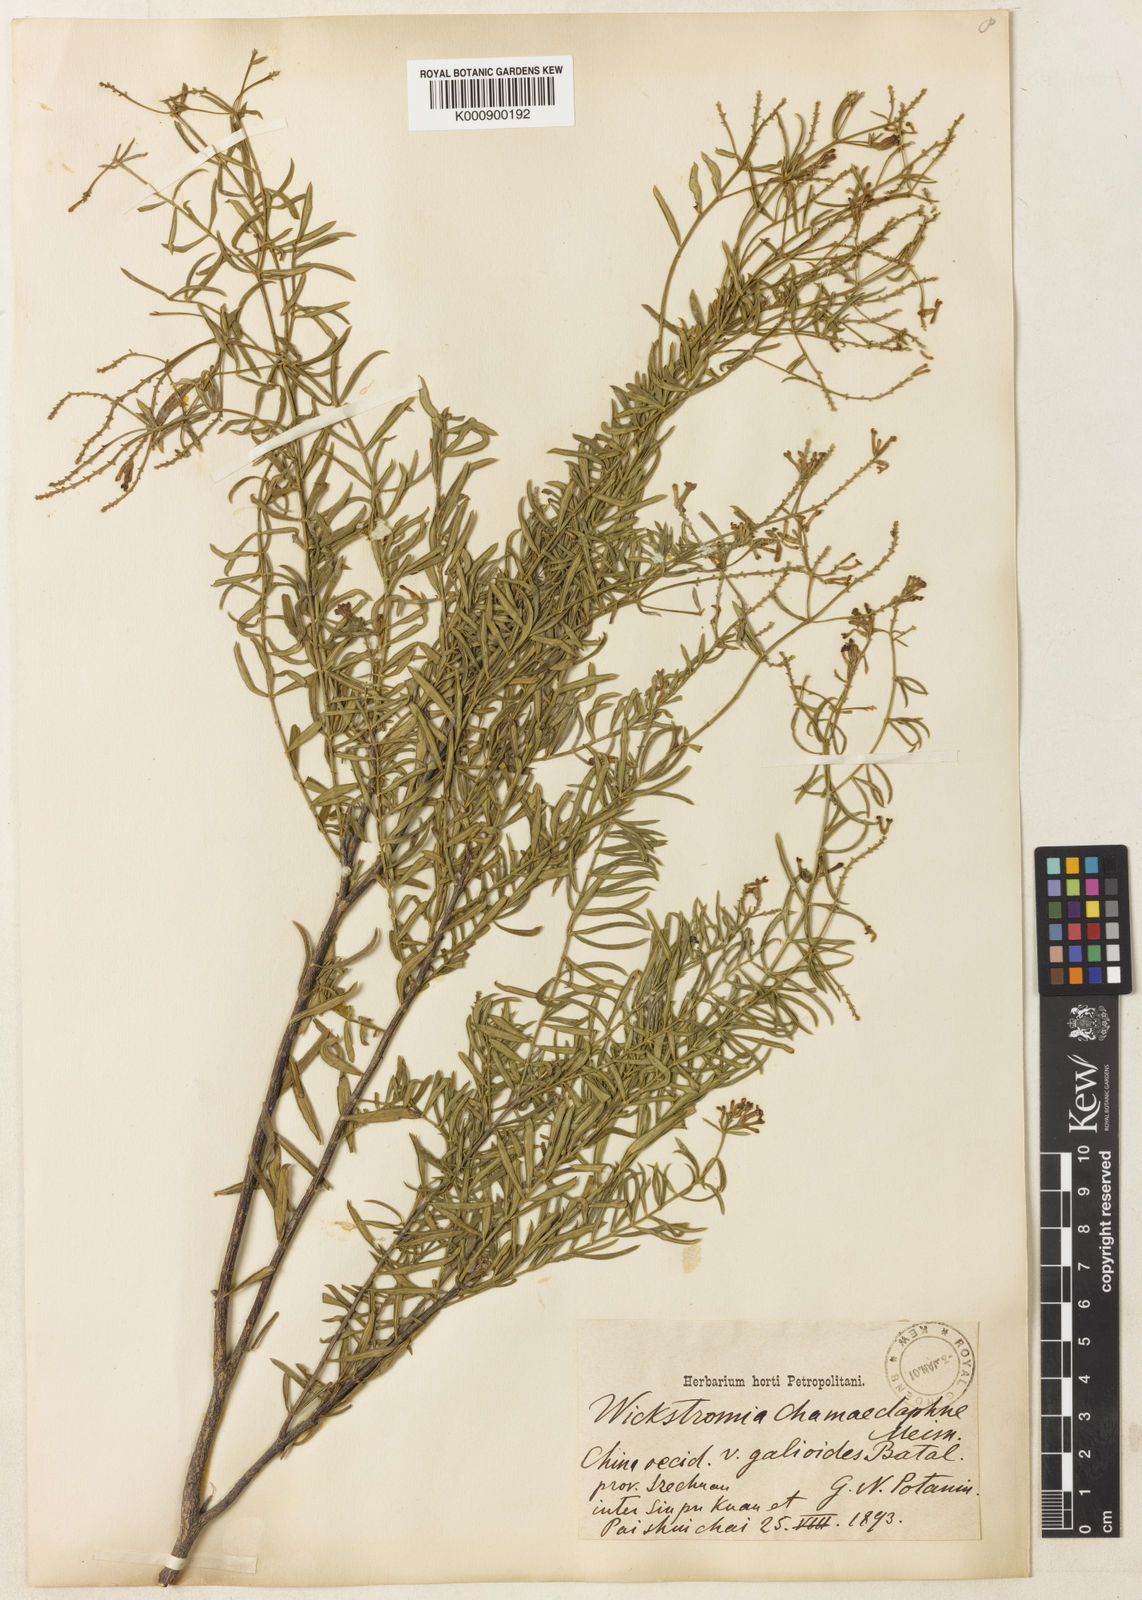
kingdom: Plantae
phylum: Tracheophyta
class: Magnoliopsida
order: Malvales
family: Thymelaeaceae
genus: Wikstroemia
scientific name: Wikstroemia chamaedaphne
